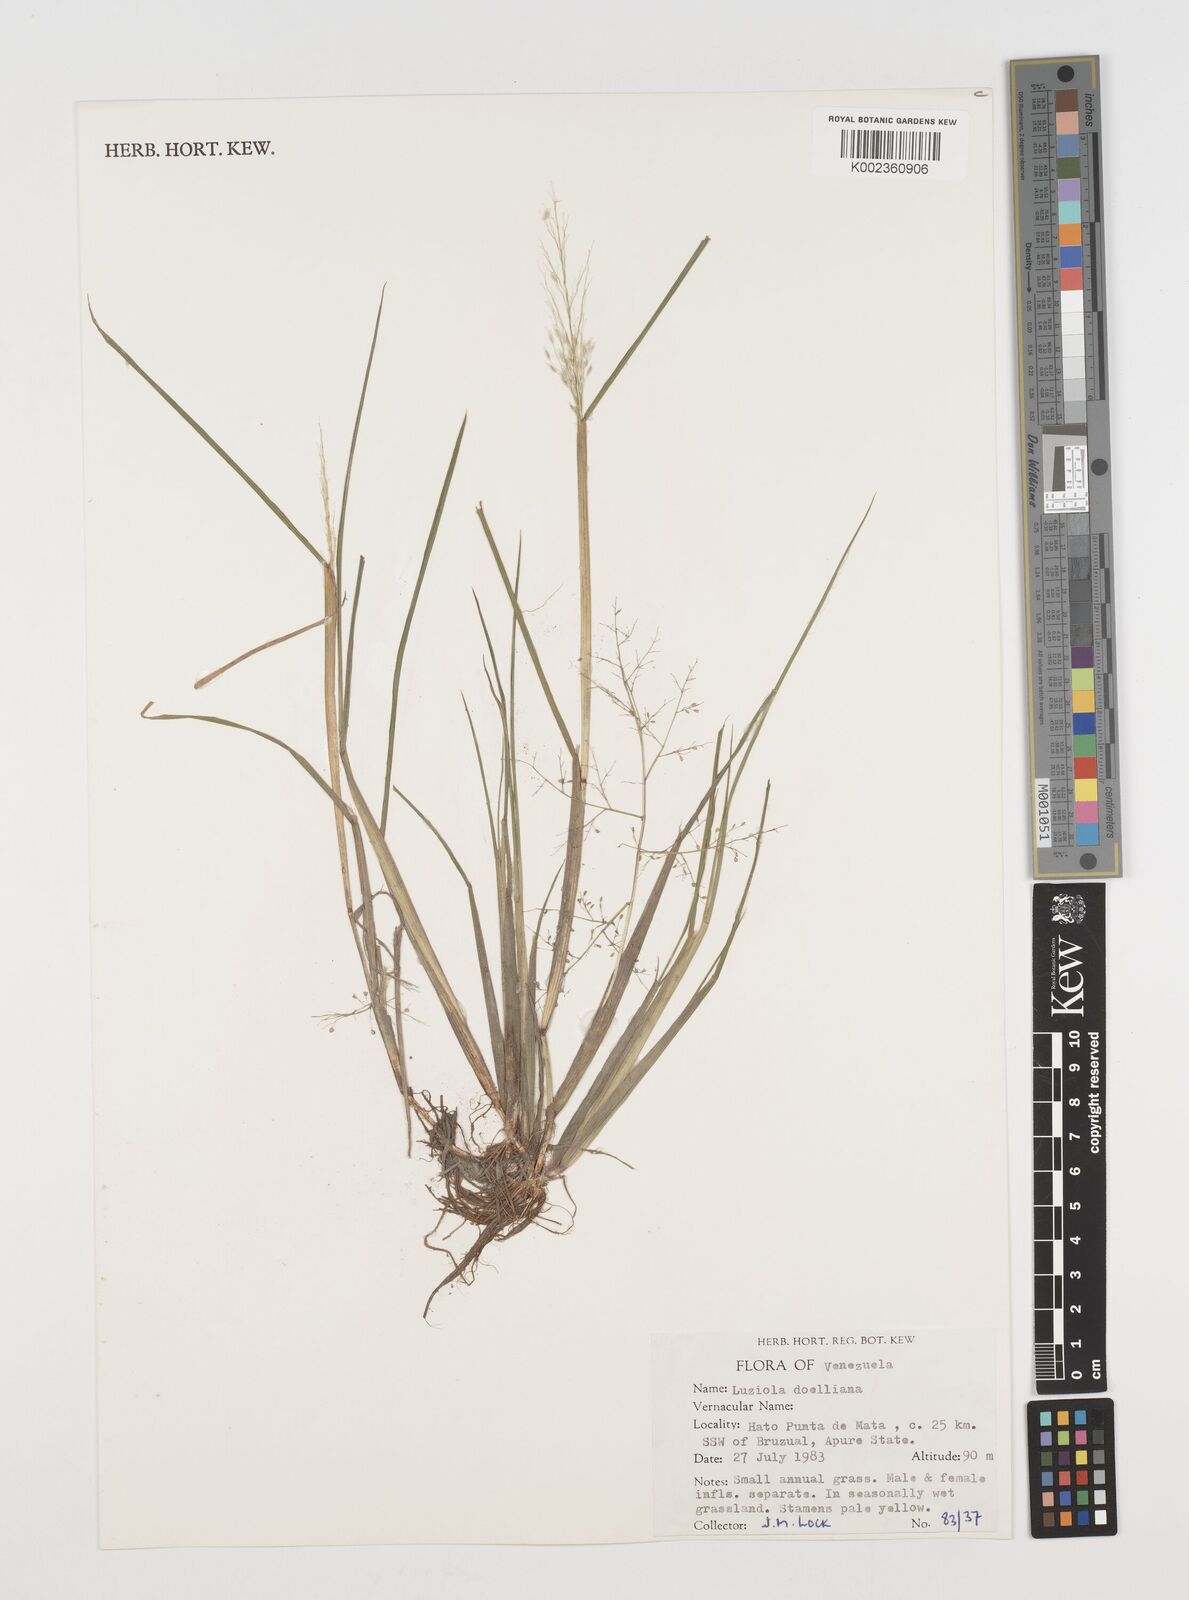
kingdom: Plantae
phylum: Tracheophyta
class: Liliopsida
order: Poales
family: Poaceae
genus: Luziola
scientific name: Luziola brasiliana
